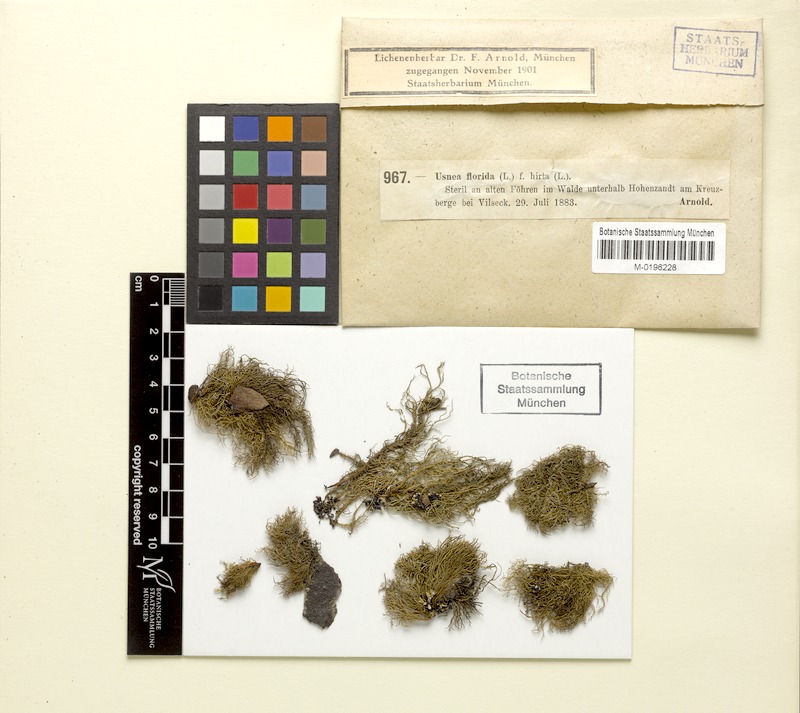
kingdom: Fungi
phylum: Ascomycota
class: Lecanoromycetes
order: Lecanorales
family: Parmeliaceae
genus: Usnea
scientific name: Usnea hirta
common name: Bristly beard lichen
